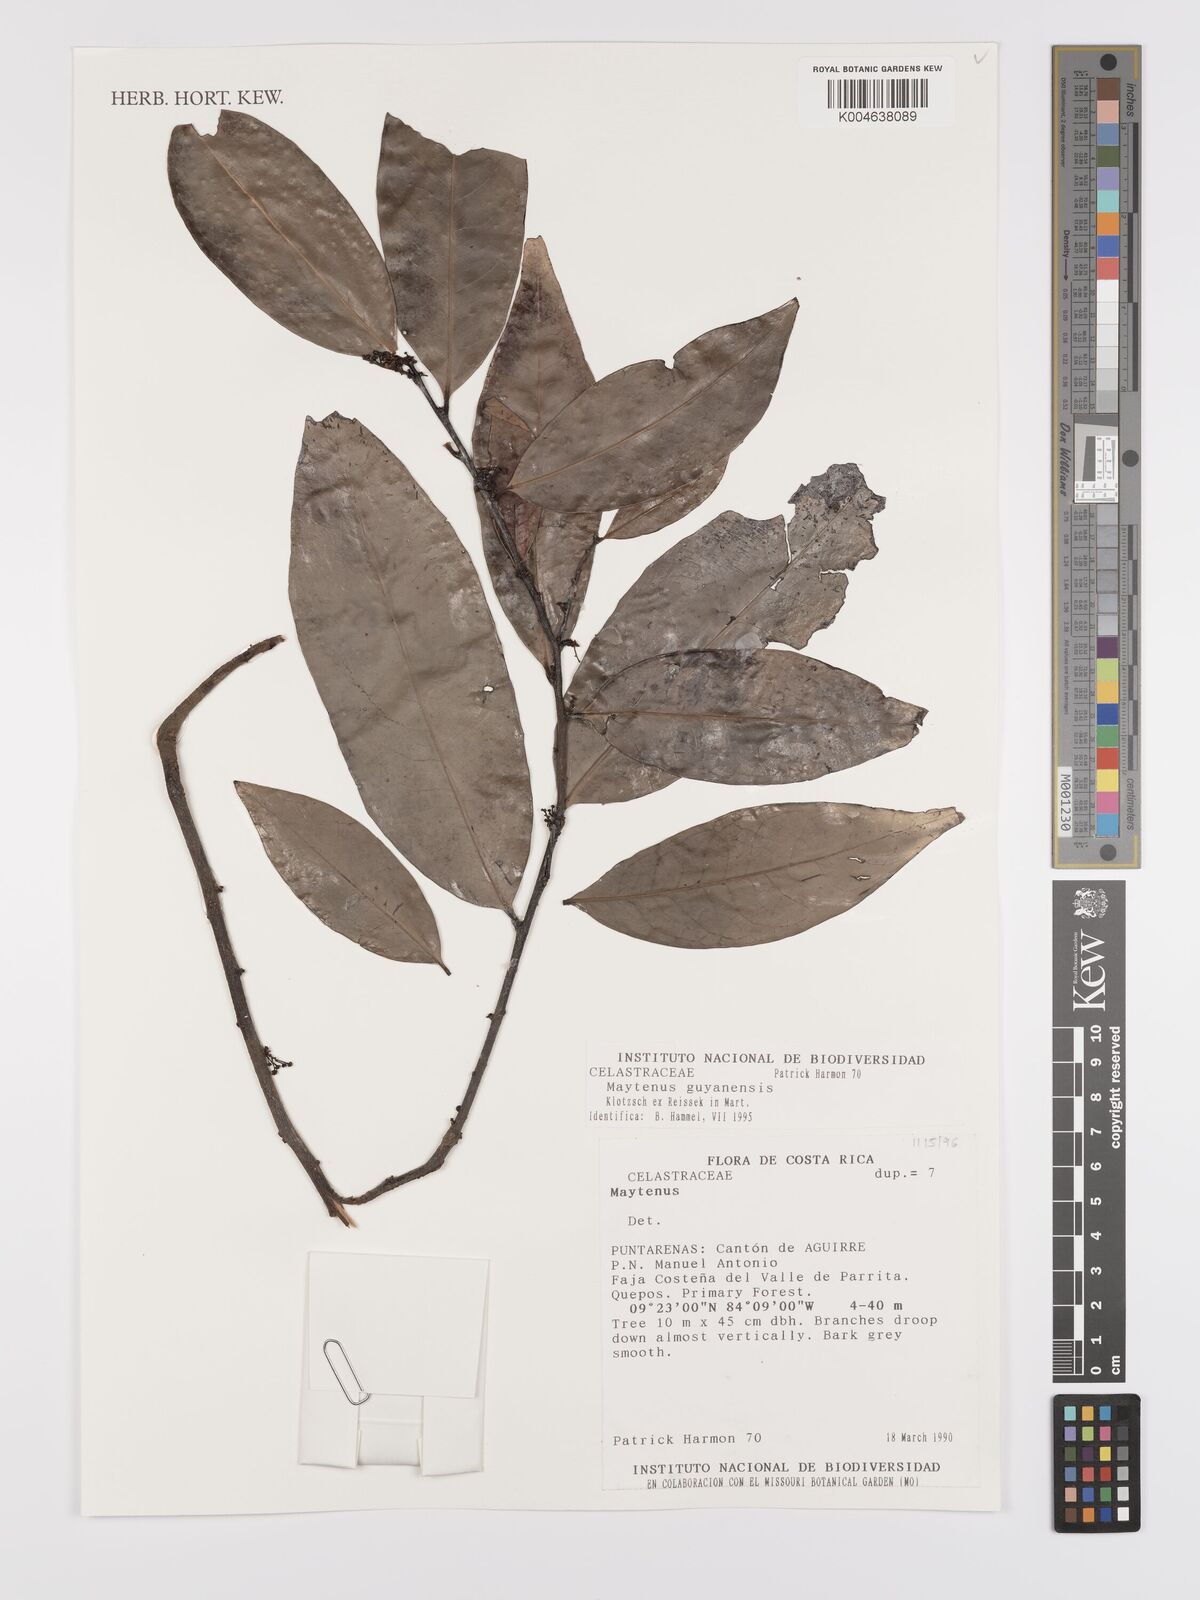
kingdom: Plantae
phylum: Tracheophyta
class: Magnoliopsida
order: Celastrales
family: Celastraceae
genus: Monteverdia
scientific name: Monteverdia guyanensis
